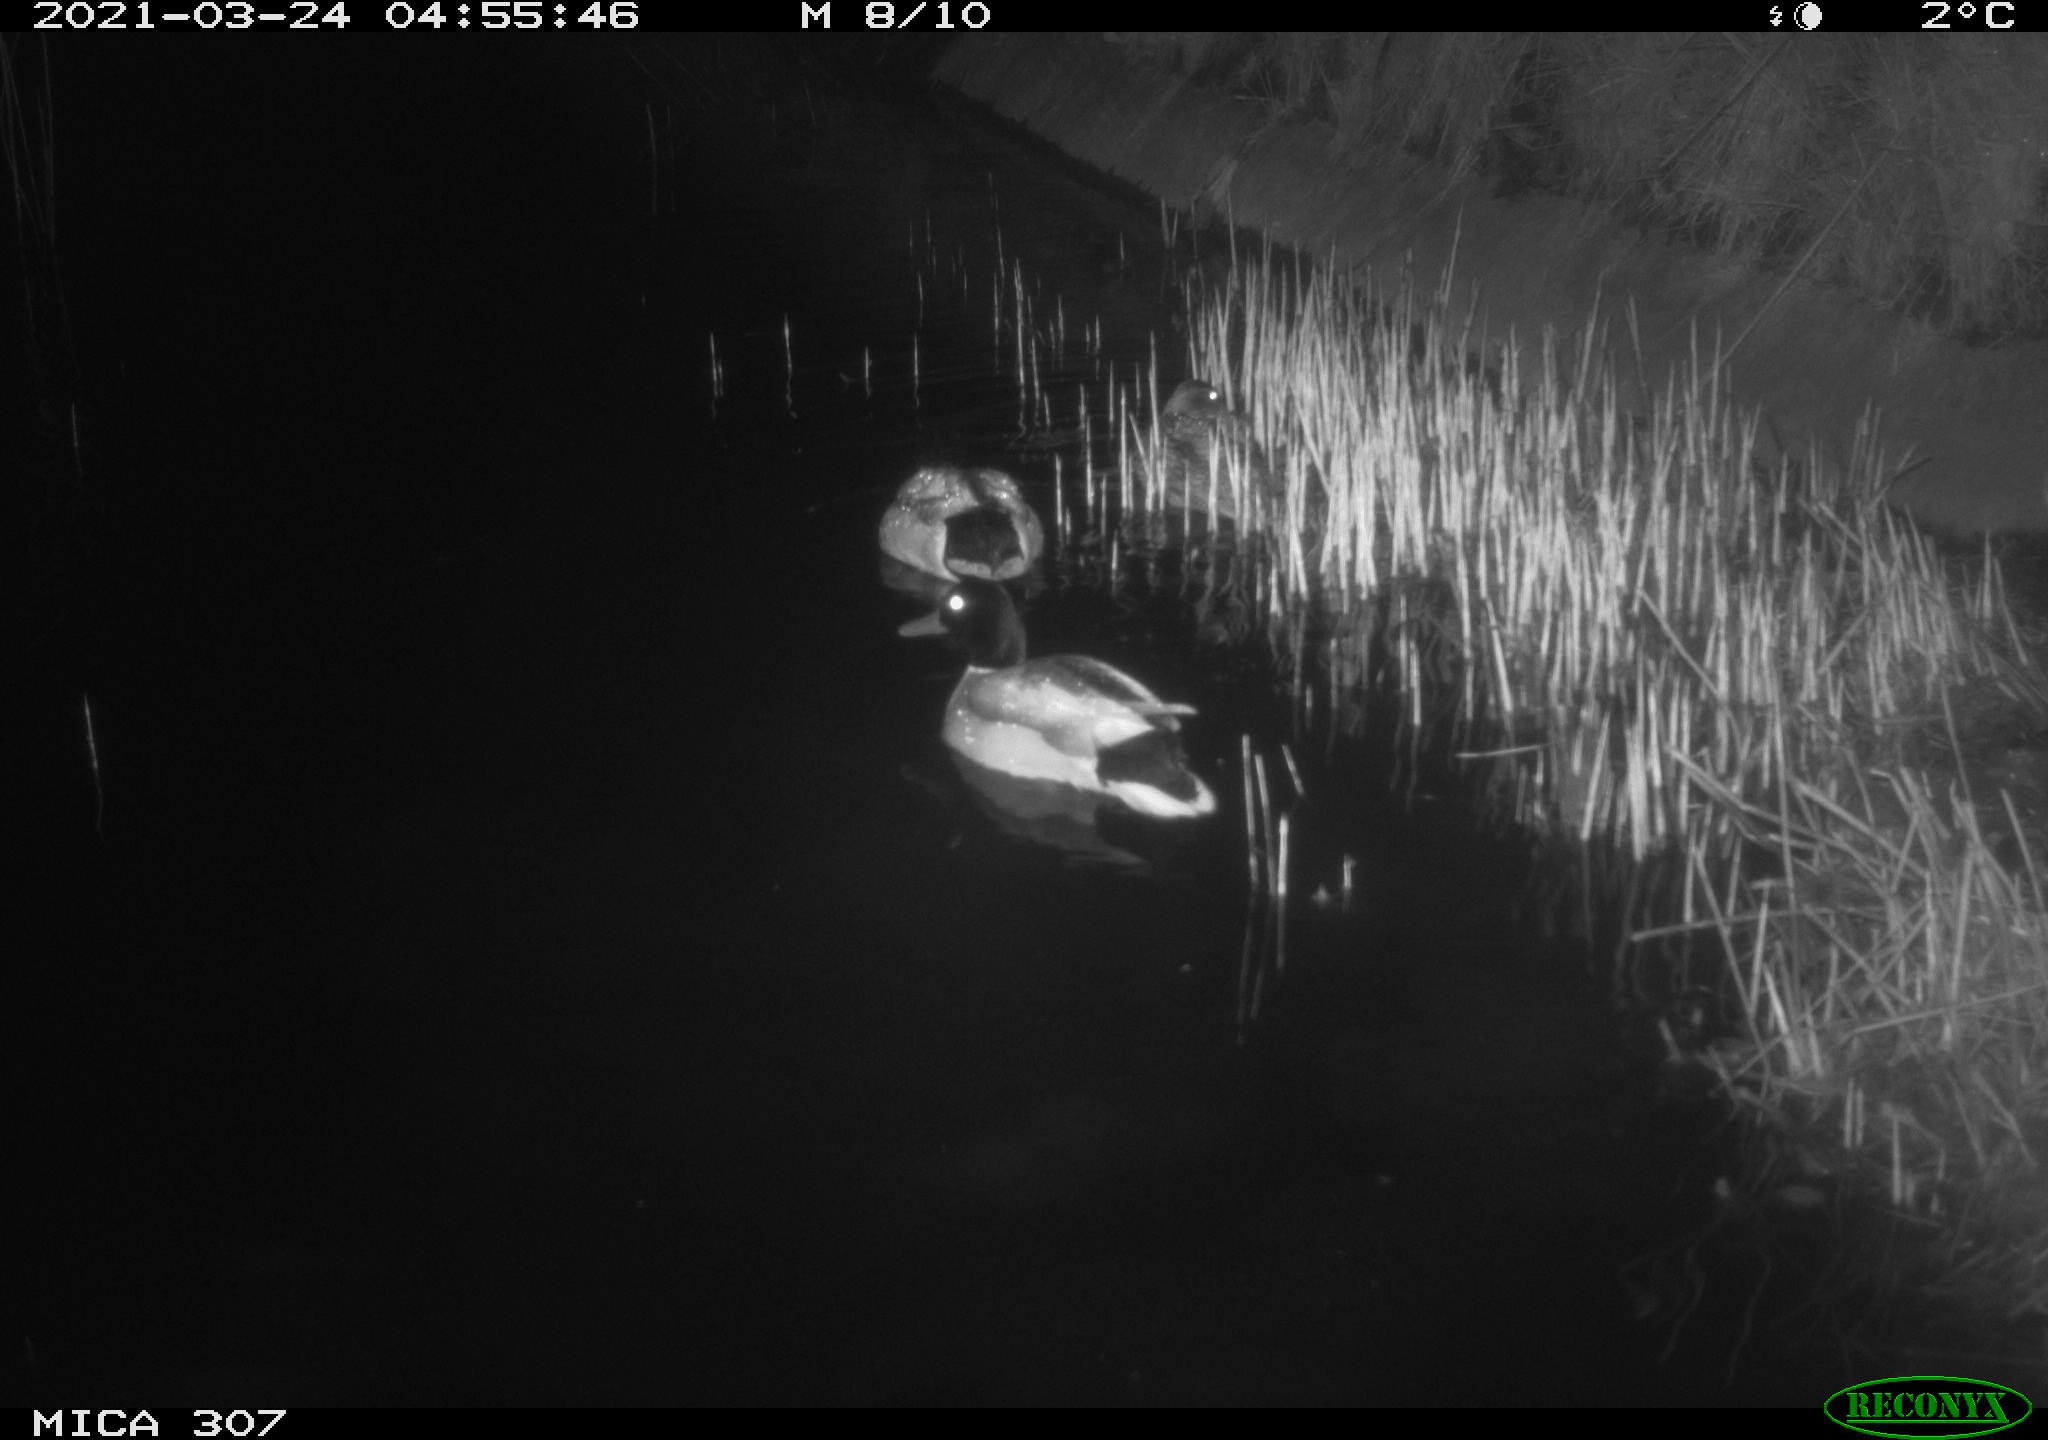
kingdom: Animalia
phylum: Chordata
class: Aves
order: Anseriformes
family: Anatidae
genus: Anas
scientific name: Anas platyrhynchos
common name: Mallard
